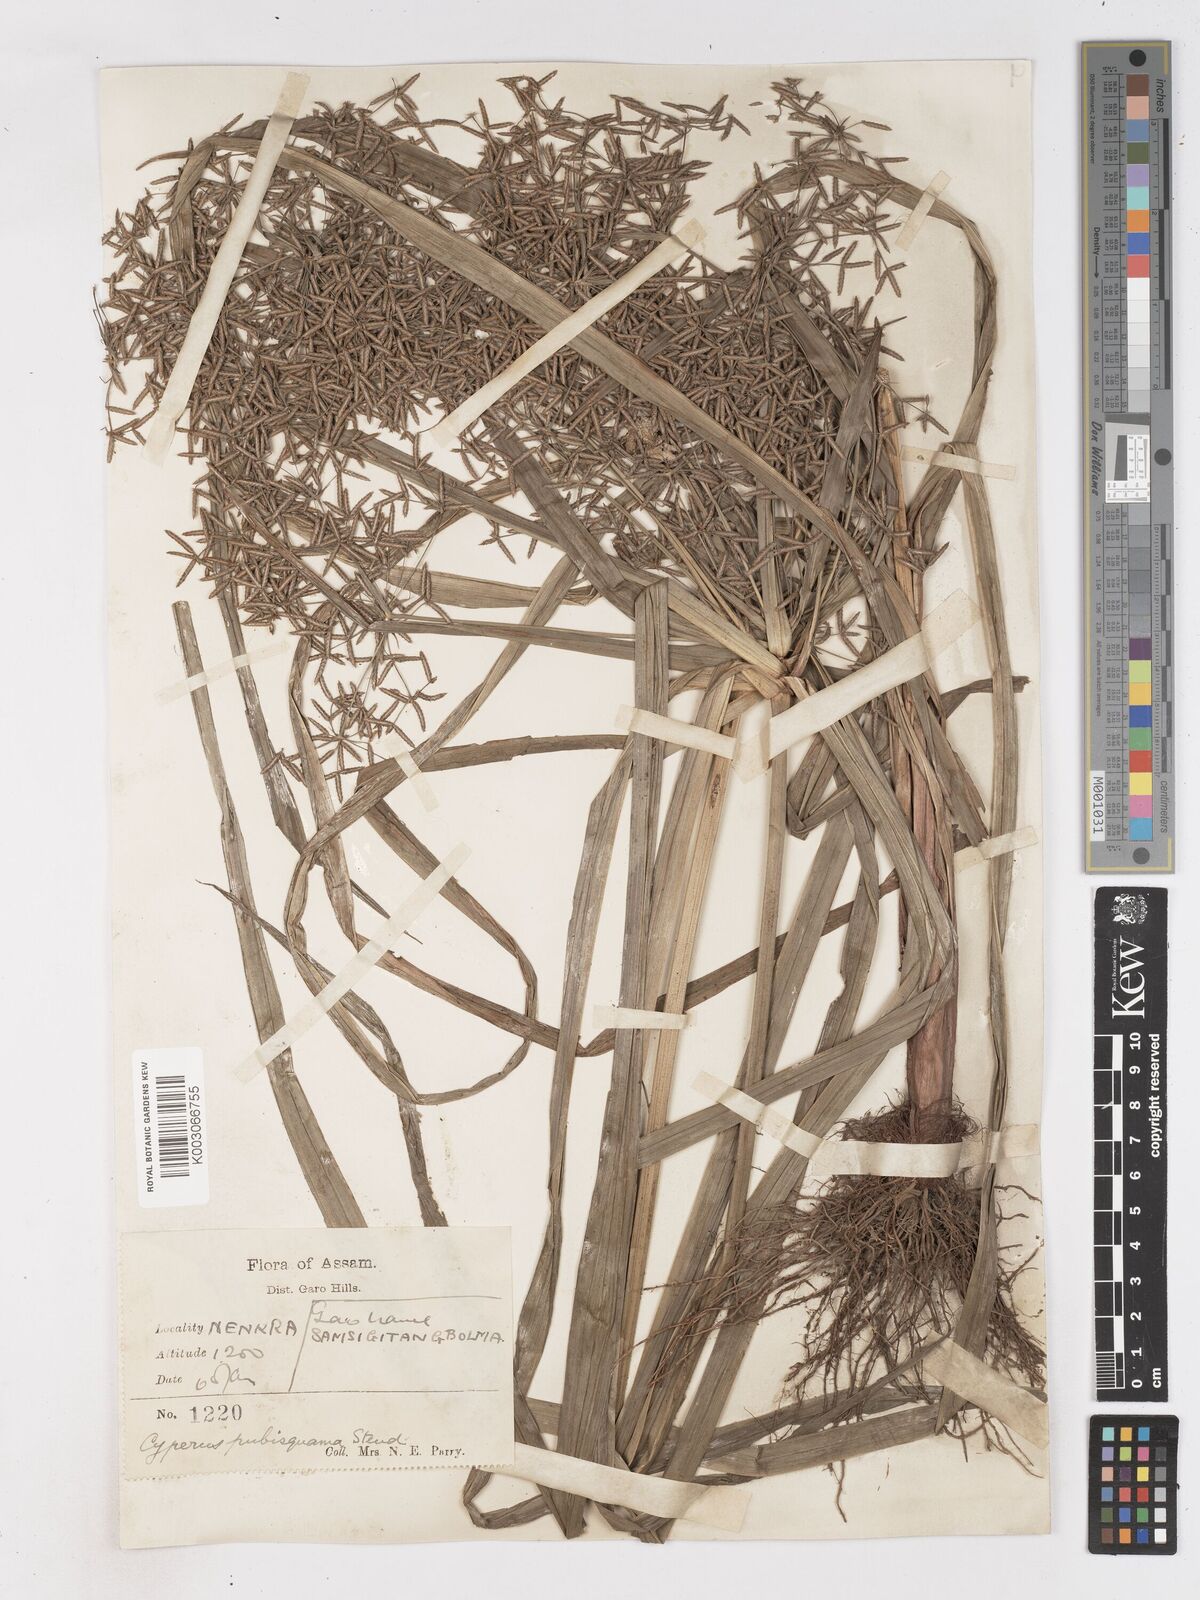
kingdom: Plantae
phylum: Tracheophyta
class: Liliopsida
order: Poales
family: Cyperaceae
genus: Cyperus
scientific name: Cyperus diffusus
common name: Dwarf umbrella grass
